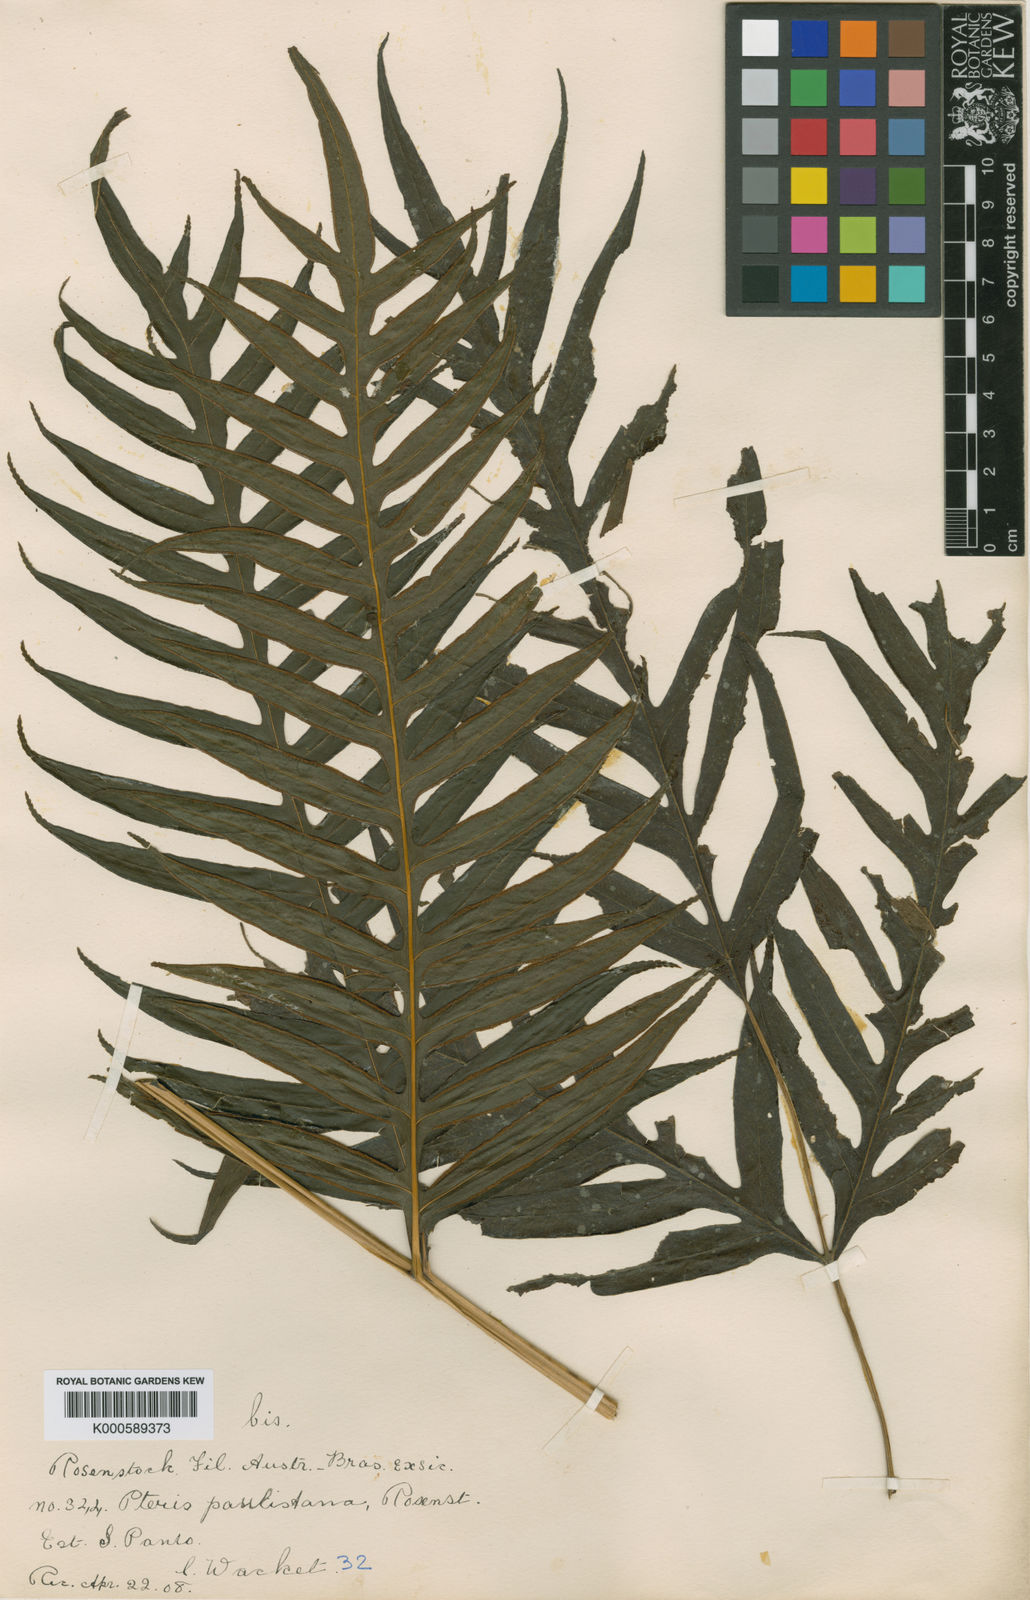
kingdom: Plantae
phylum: Tracheophyta
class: Polypodiopsida
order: Polypodiales
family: Pteridaceae
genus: Pteris
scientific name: Pteris altissima
